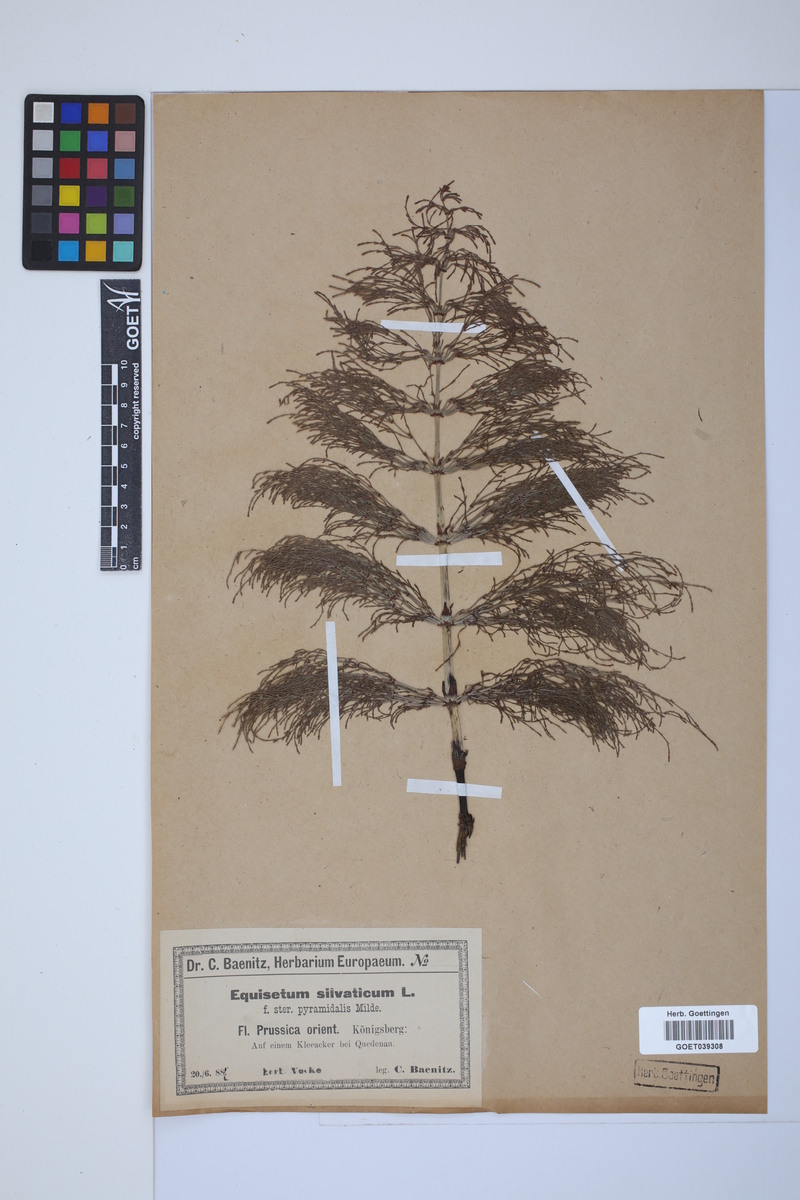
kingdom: Plantae
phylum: Tracheophyta
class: Polypodiopsida
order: Equisetales
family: Equisetaceae
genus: Equisetum
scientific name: Equisetum sylvaticum
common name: Wood horsetail
